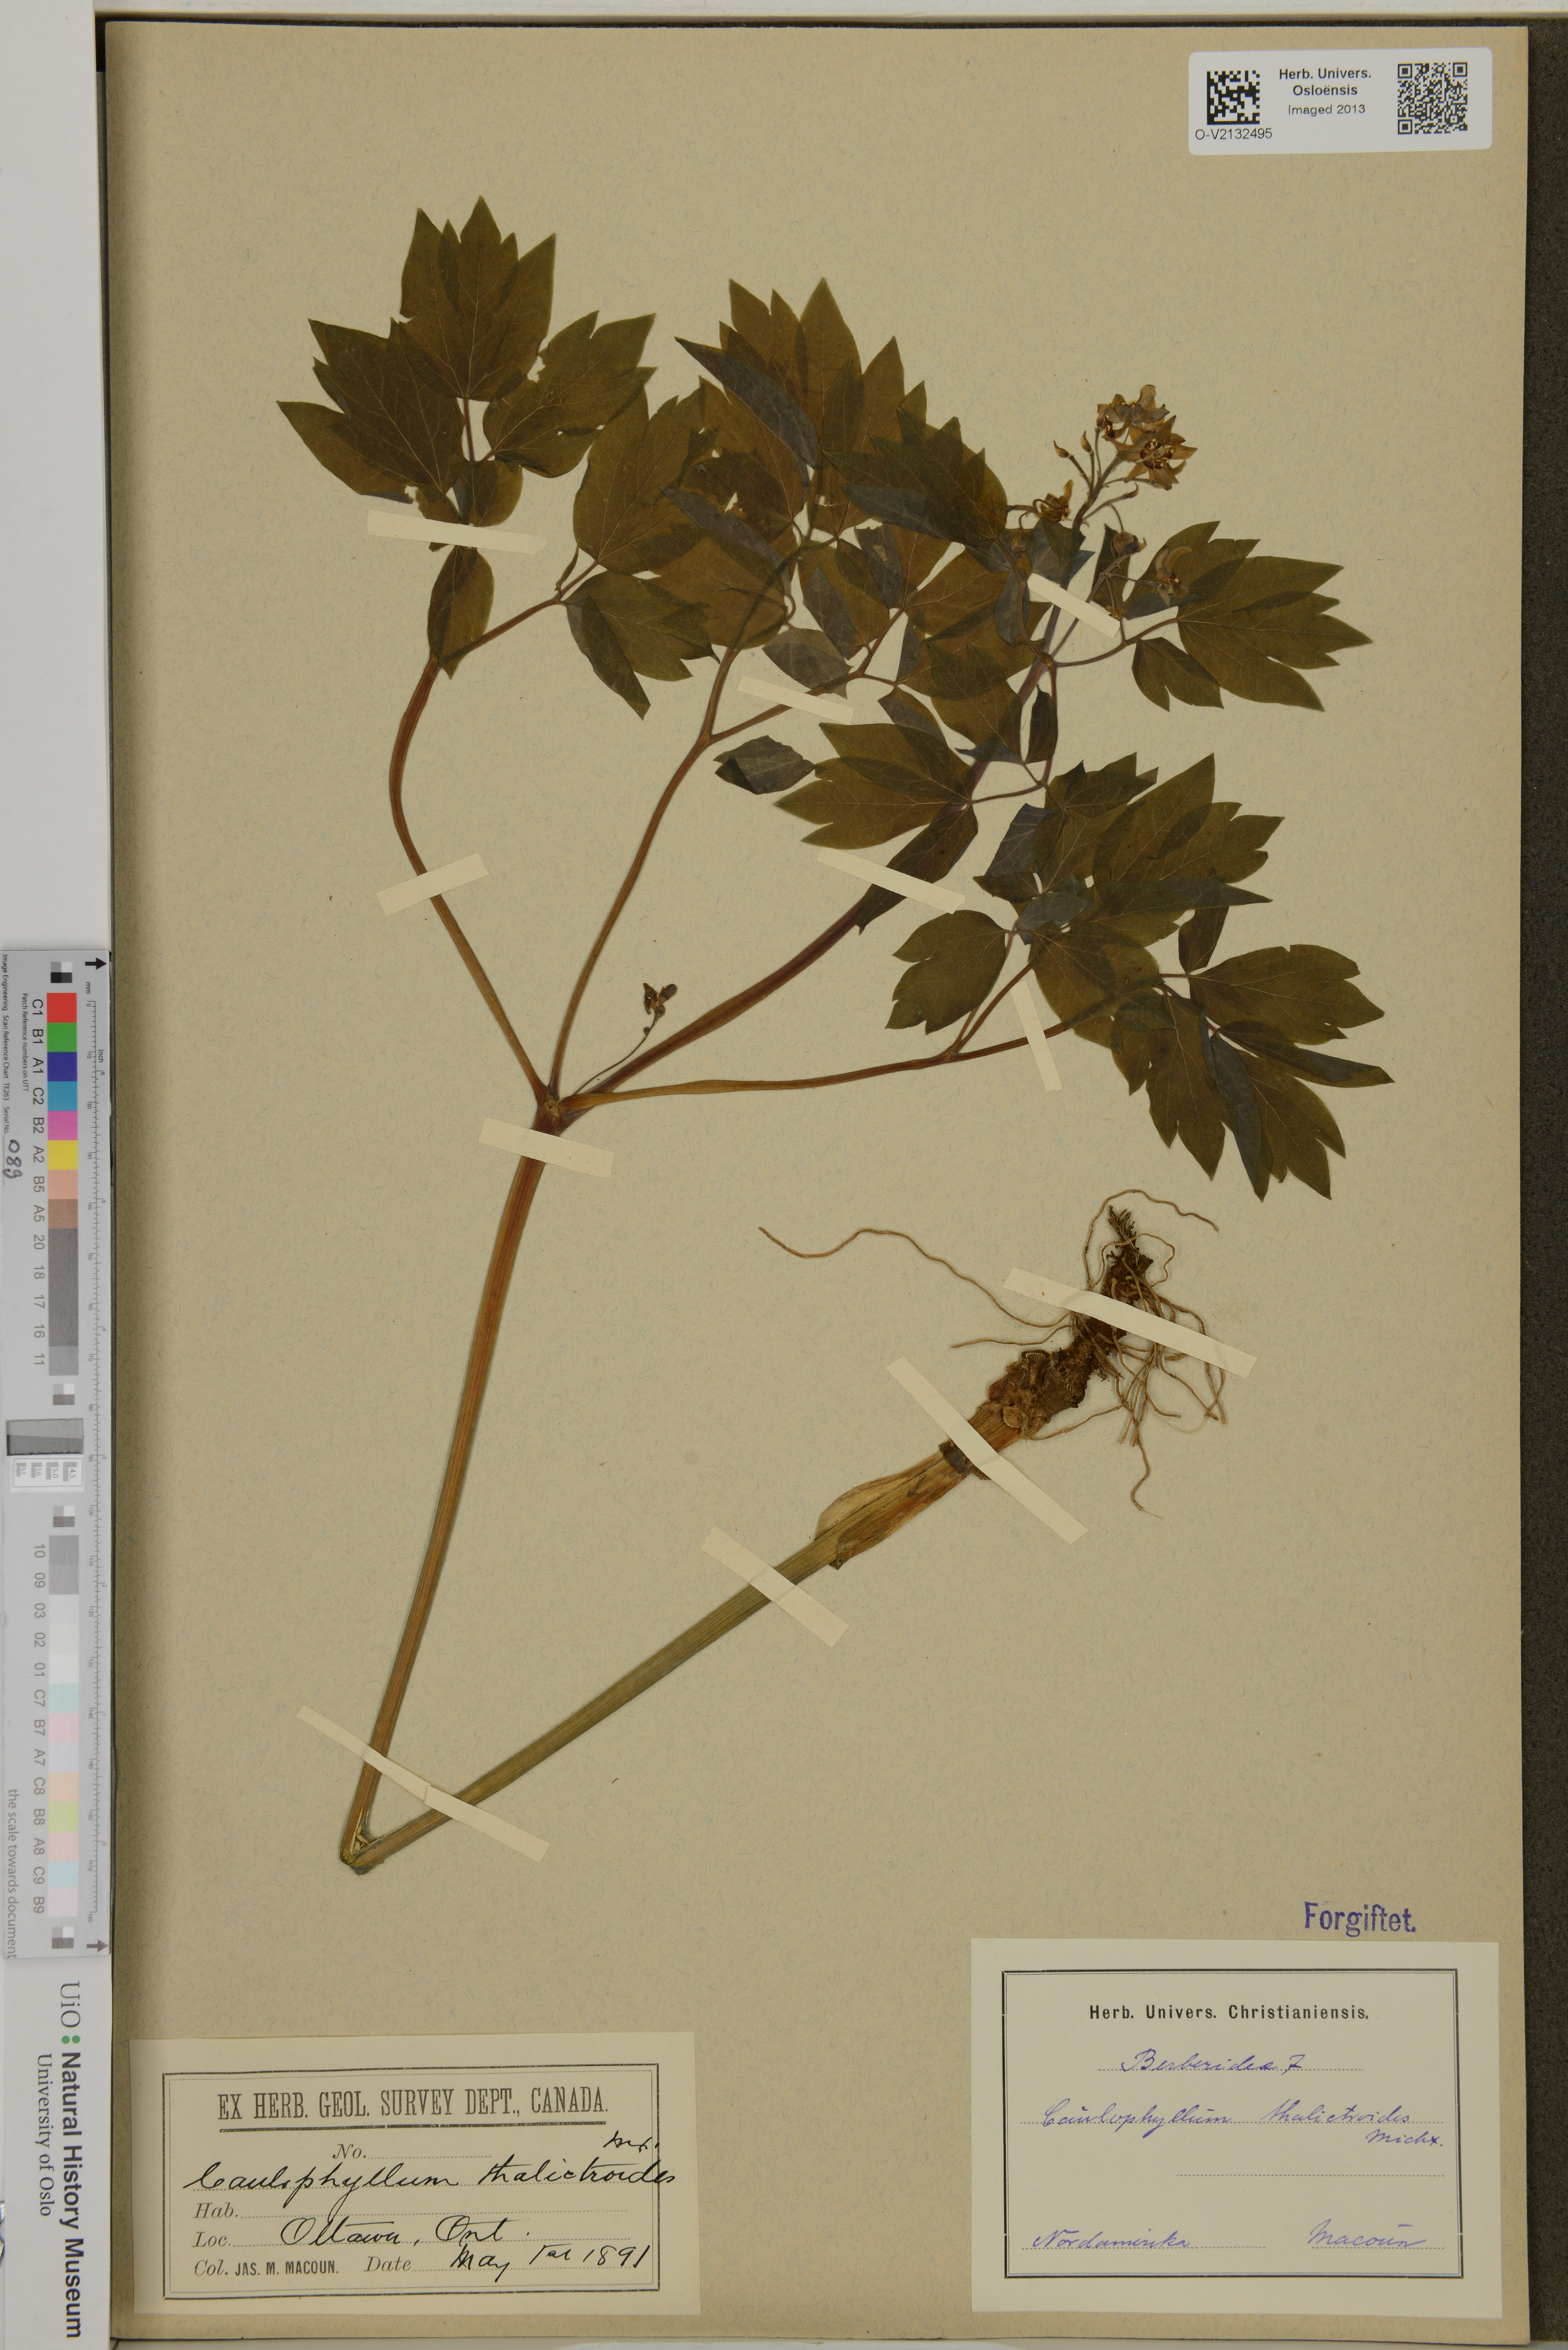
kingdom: Plantae
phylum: Tracheophyta
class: Magnoliopsida
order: Ranunculales
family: Berberidaceae
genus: Caulophyllum
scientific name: Caulophyllum thalictroides
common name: Blue cohosh
